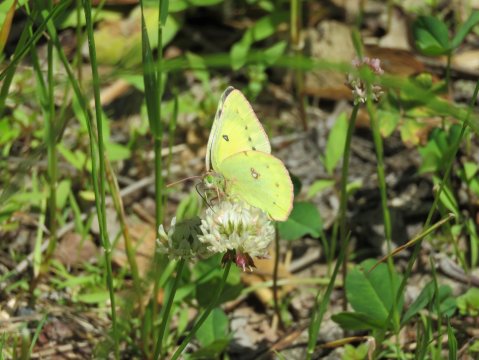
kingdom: Animalia
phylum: Arthropoda
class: Insecta
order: Lepidoptera
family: Pieridae
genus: Colias
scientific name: Colias eurytheme
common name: Orange Sulphur
